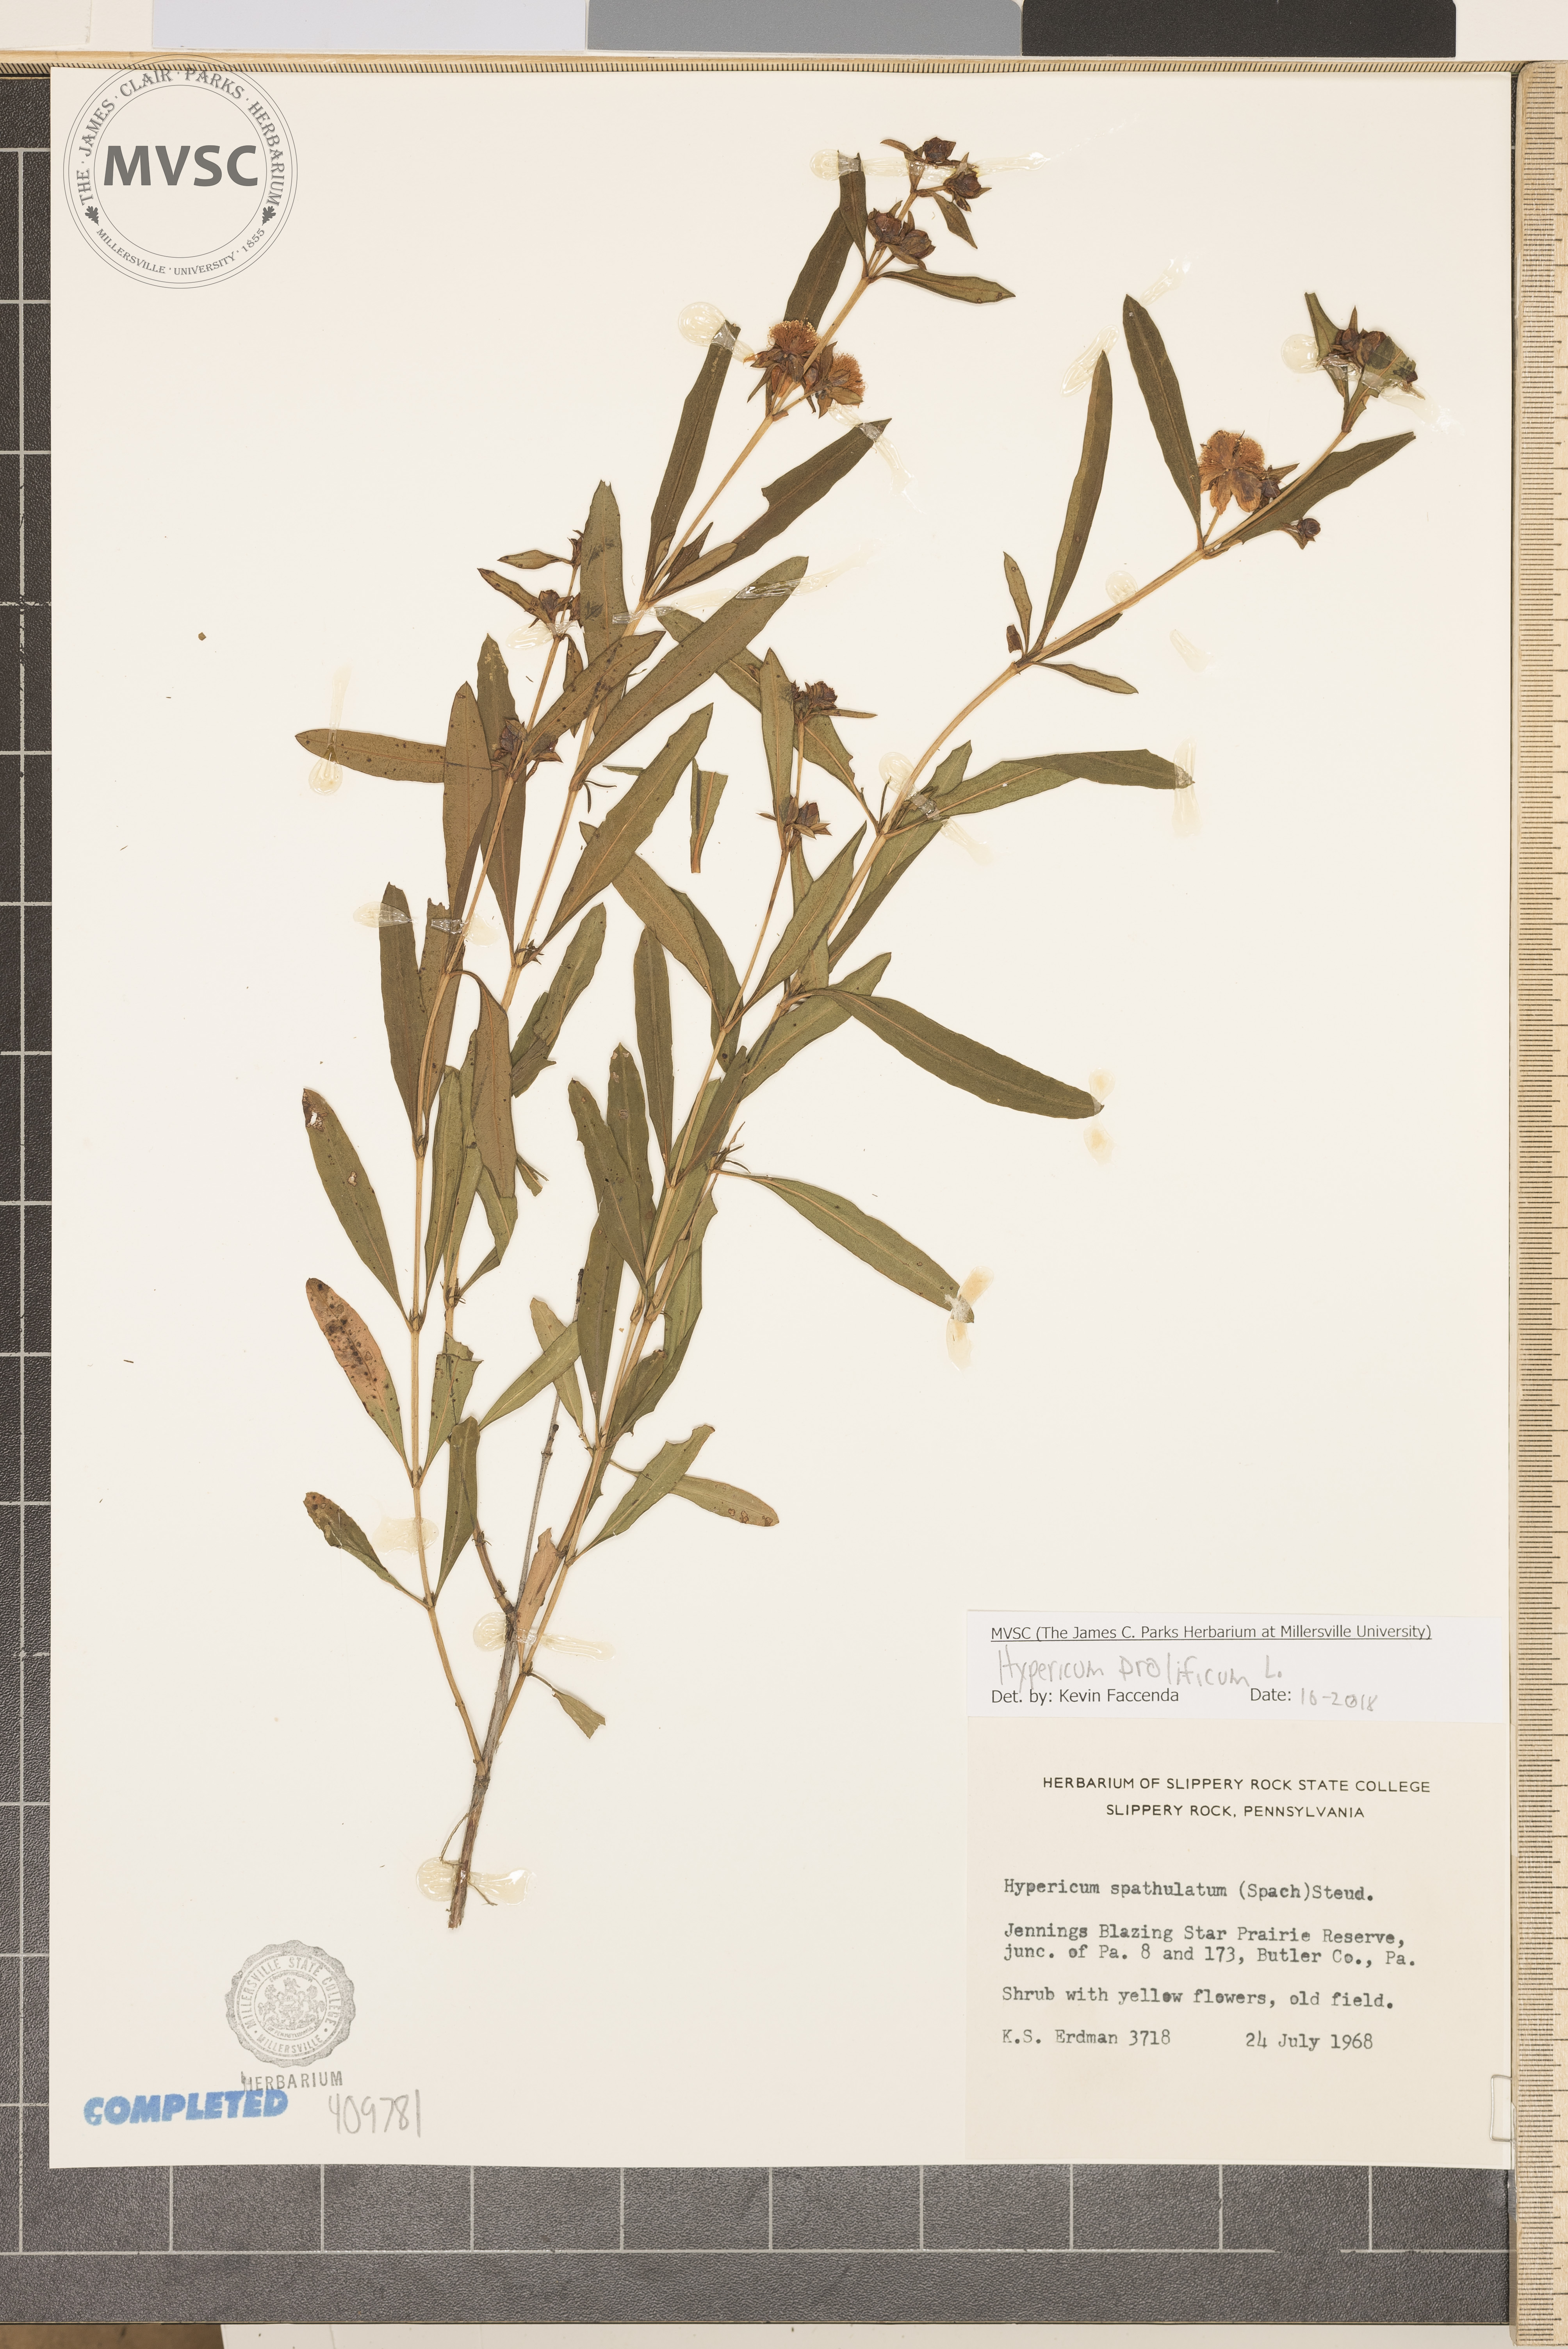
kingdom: Plantae
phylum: Tracheophyta
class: Magnoliopsida
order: Malpighiales
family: Hypericaceae
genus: Hypericum
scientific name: Hypericum prolificum
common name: Shrubby St. John's-wort
